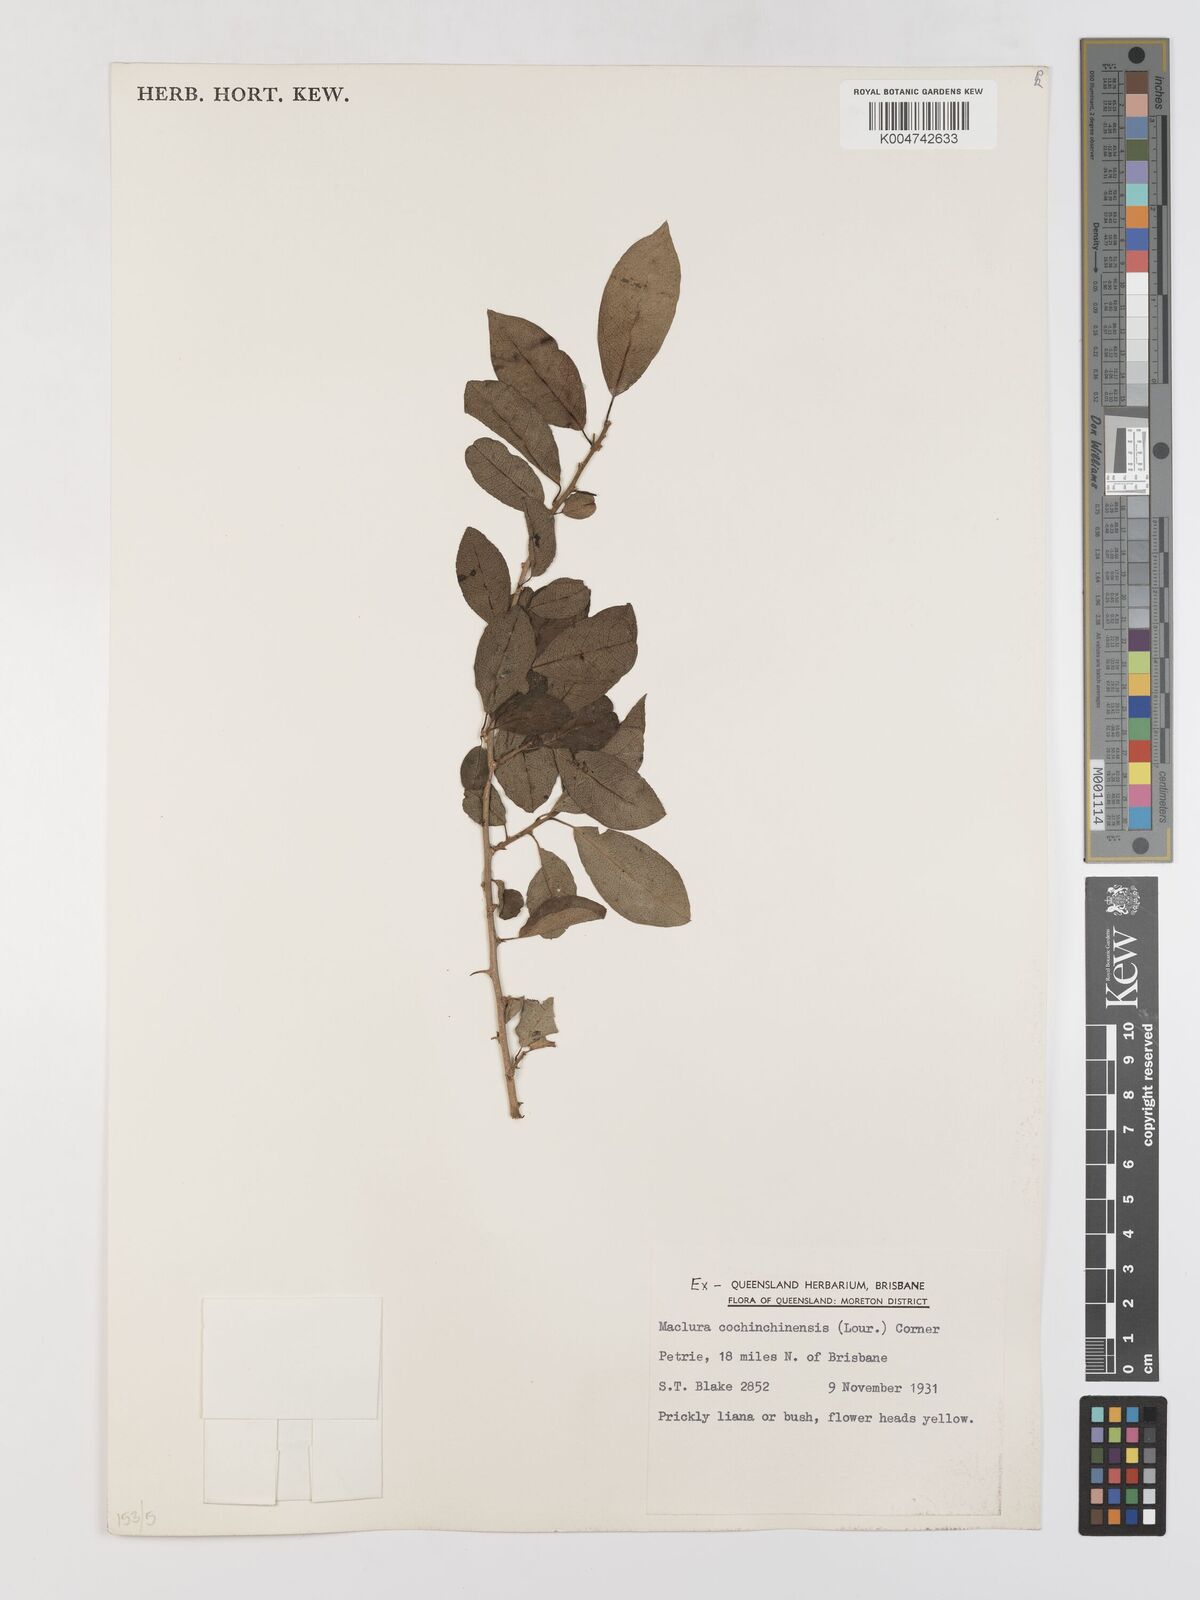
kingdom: Plantae
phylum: Tracheophyta
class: Magnoliopsida
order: Rosales
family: Moraceae
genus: Maclura
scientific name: Maclura cochinchinensis
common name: Cockspurthorn
